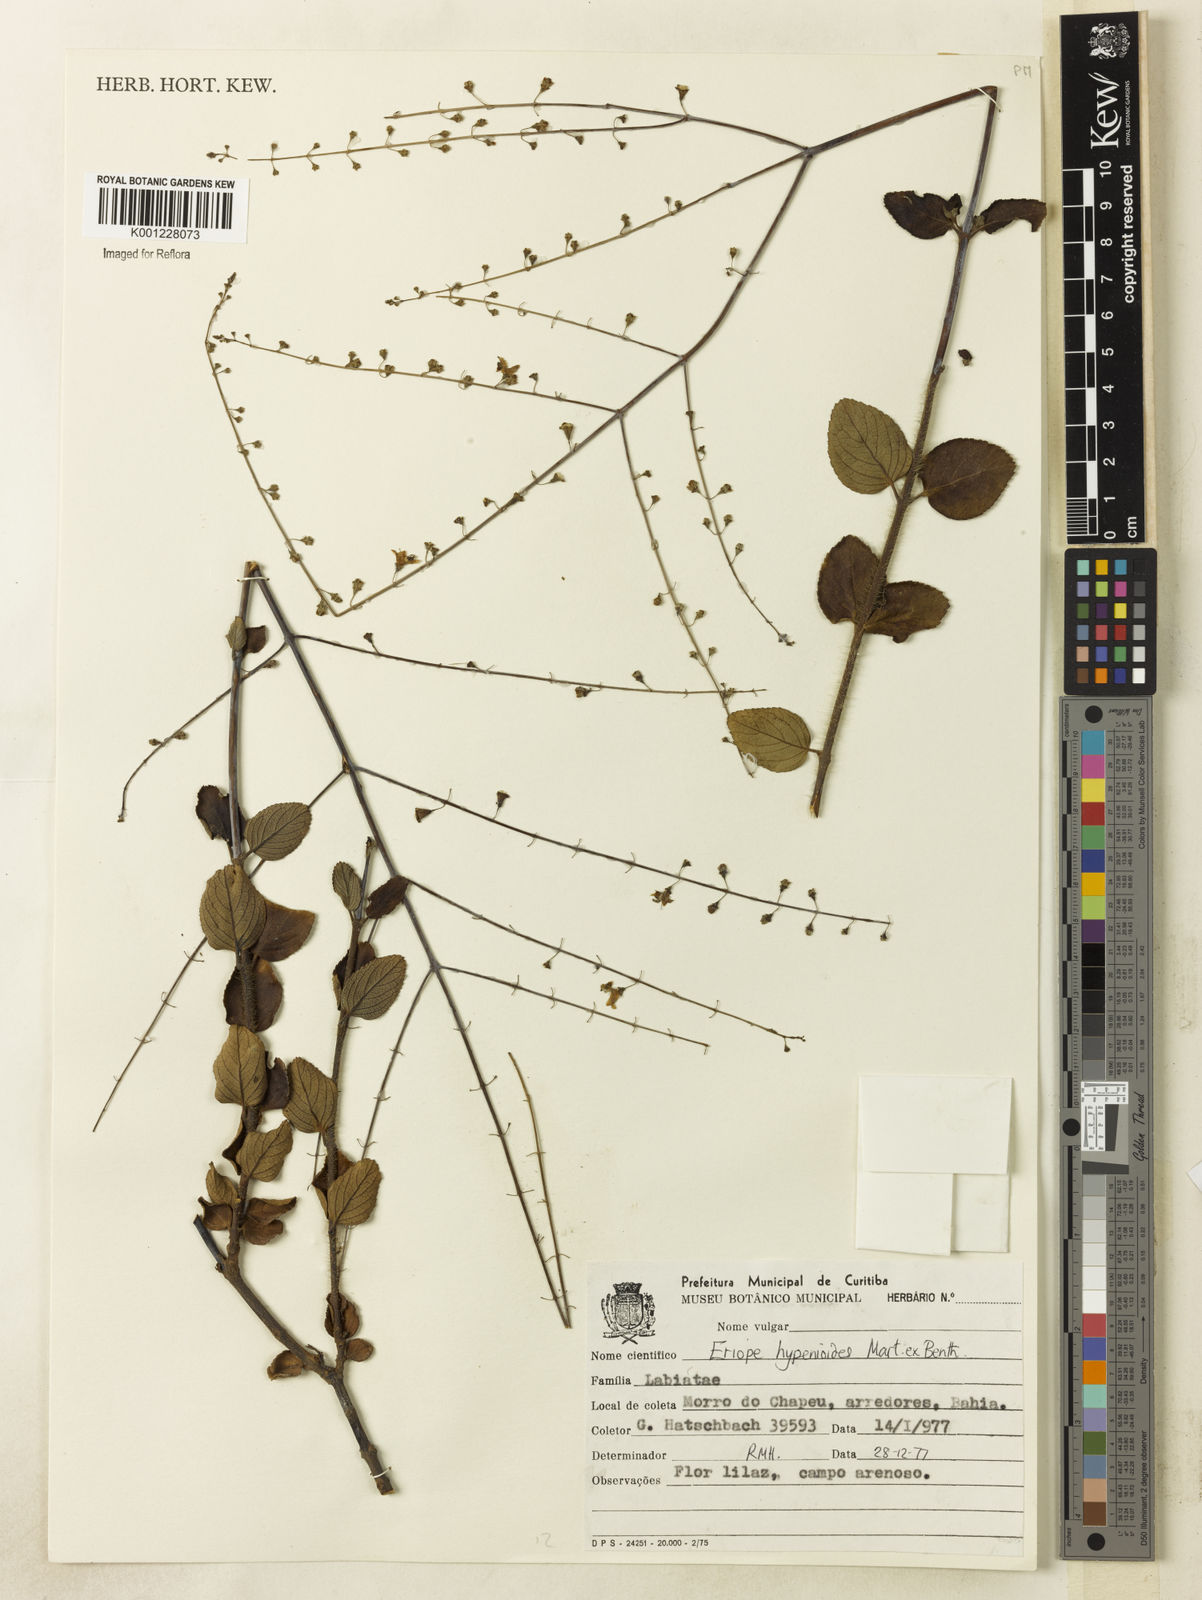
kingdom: Plantae
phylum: Tracheophyta
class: Magnoliopsida
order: Lamiales
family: Lamiaceae
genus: Eriope
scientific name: Eriope hypenioides
